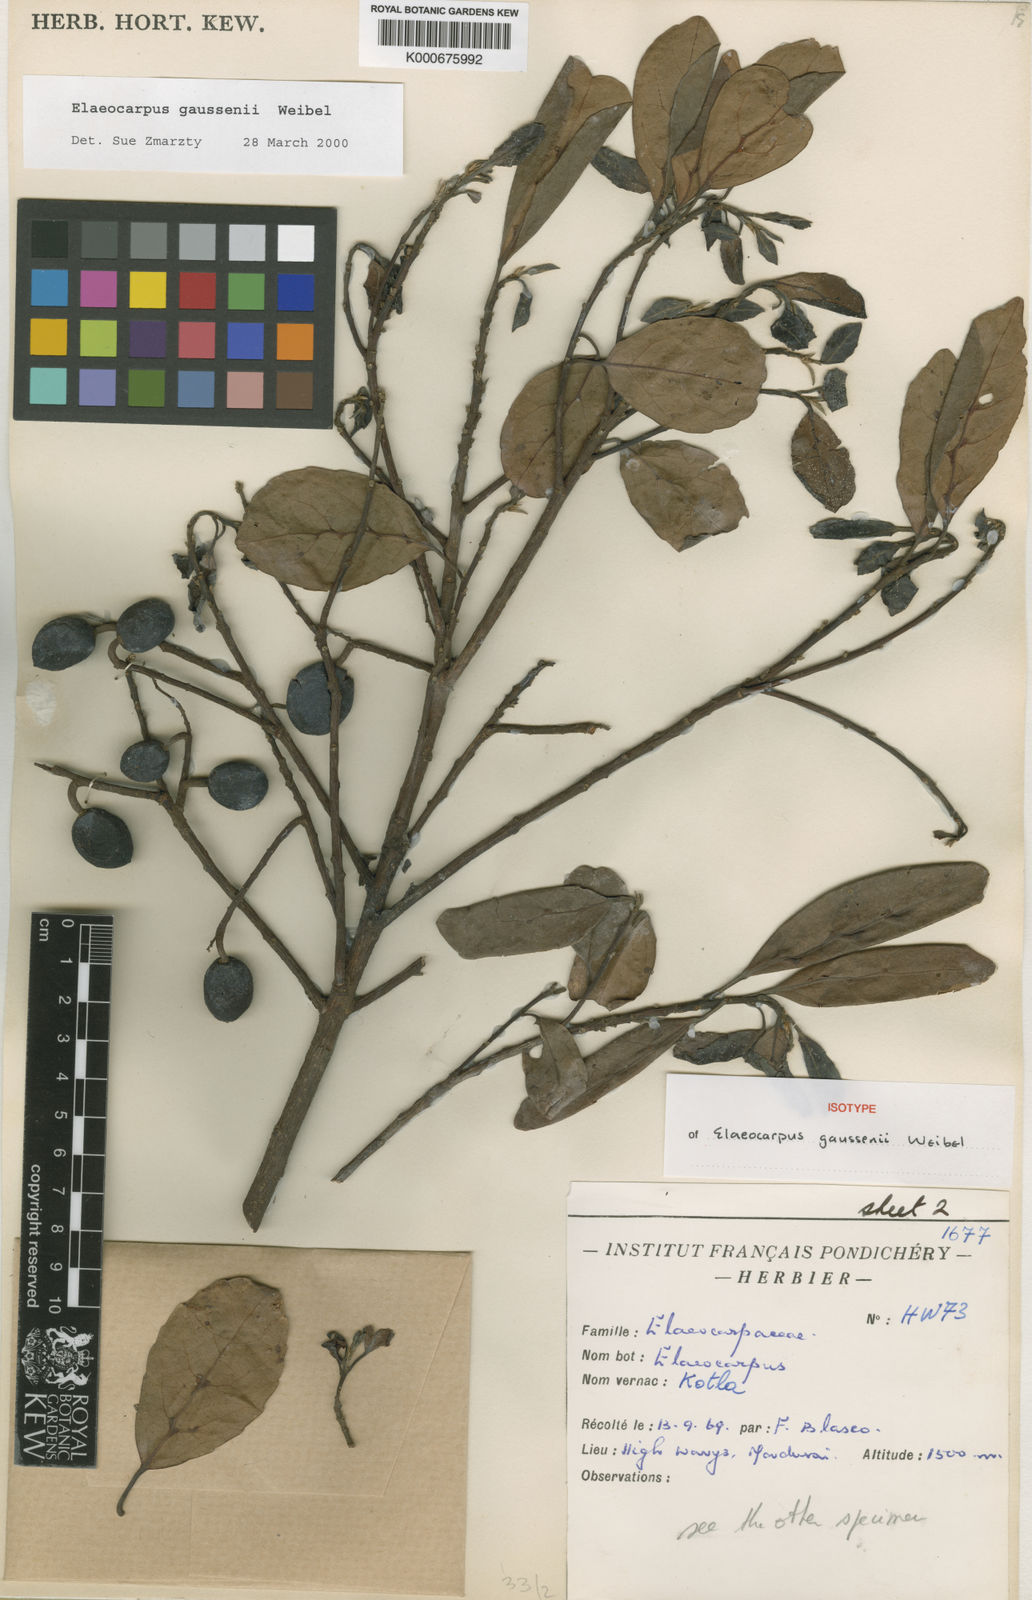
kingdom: Plantae
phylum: Tracheophyta
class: Magnoliopsida
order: Oxalidales
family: Elaeocarpaceae
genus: Elaeocarpus
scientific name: Elaeocarpus gaussenii
